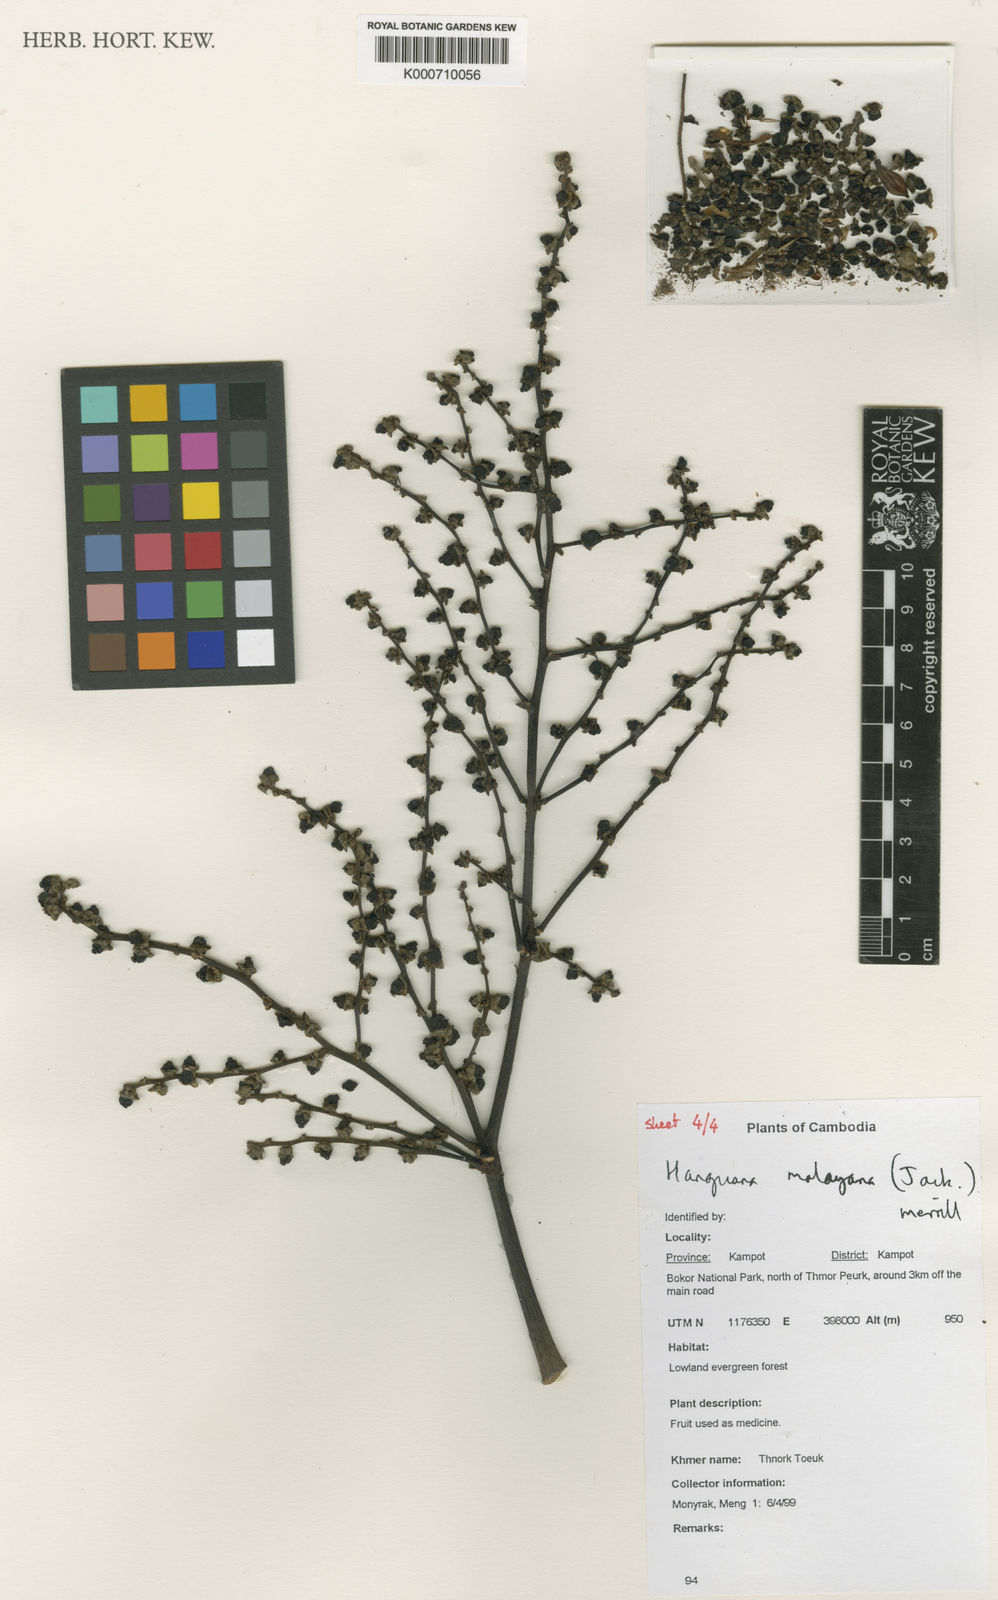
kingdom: Plantae
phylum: Tracheophyta
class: Liliopsida
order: Commelinales
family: Hanguanaceae
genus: Hanguana
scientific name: Hanguana malayana
